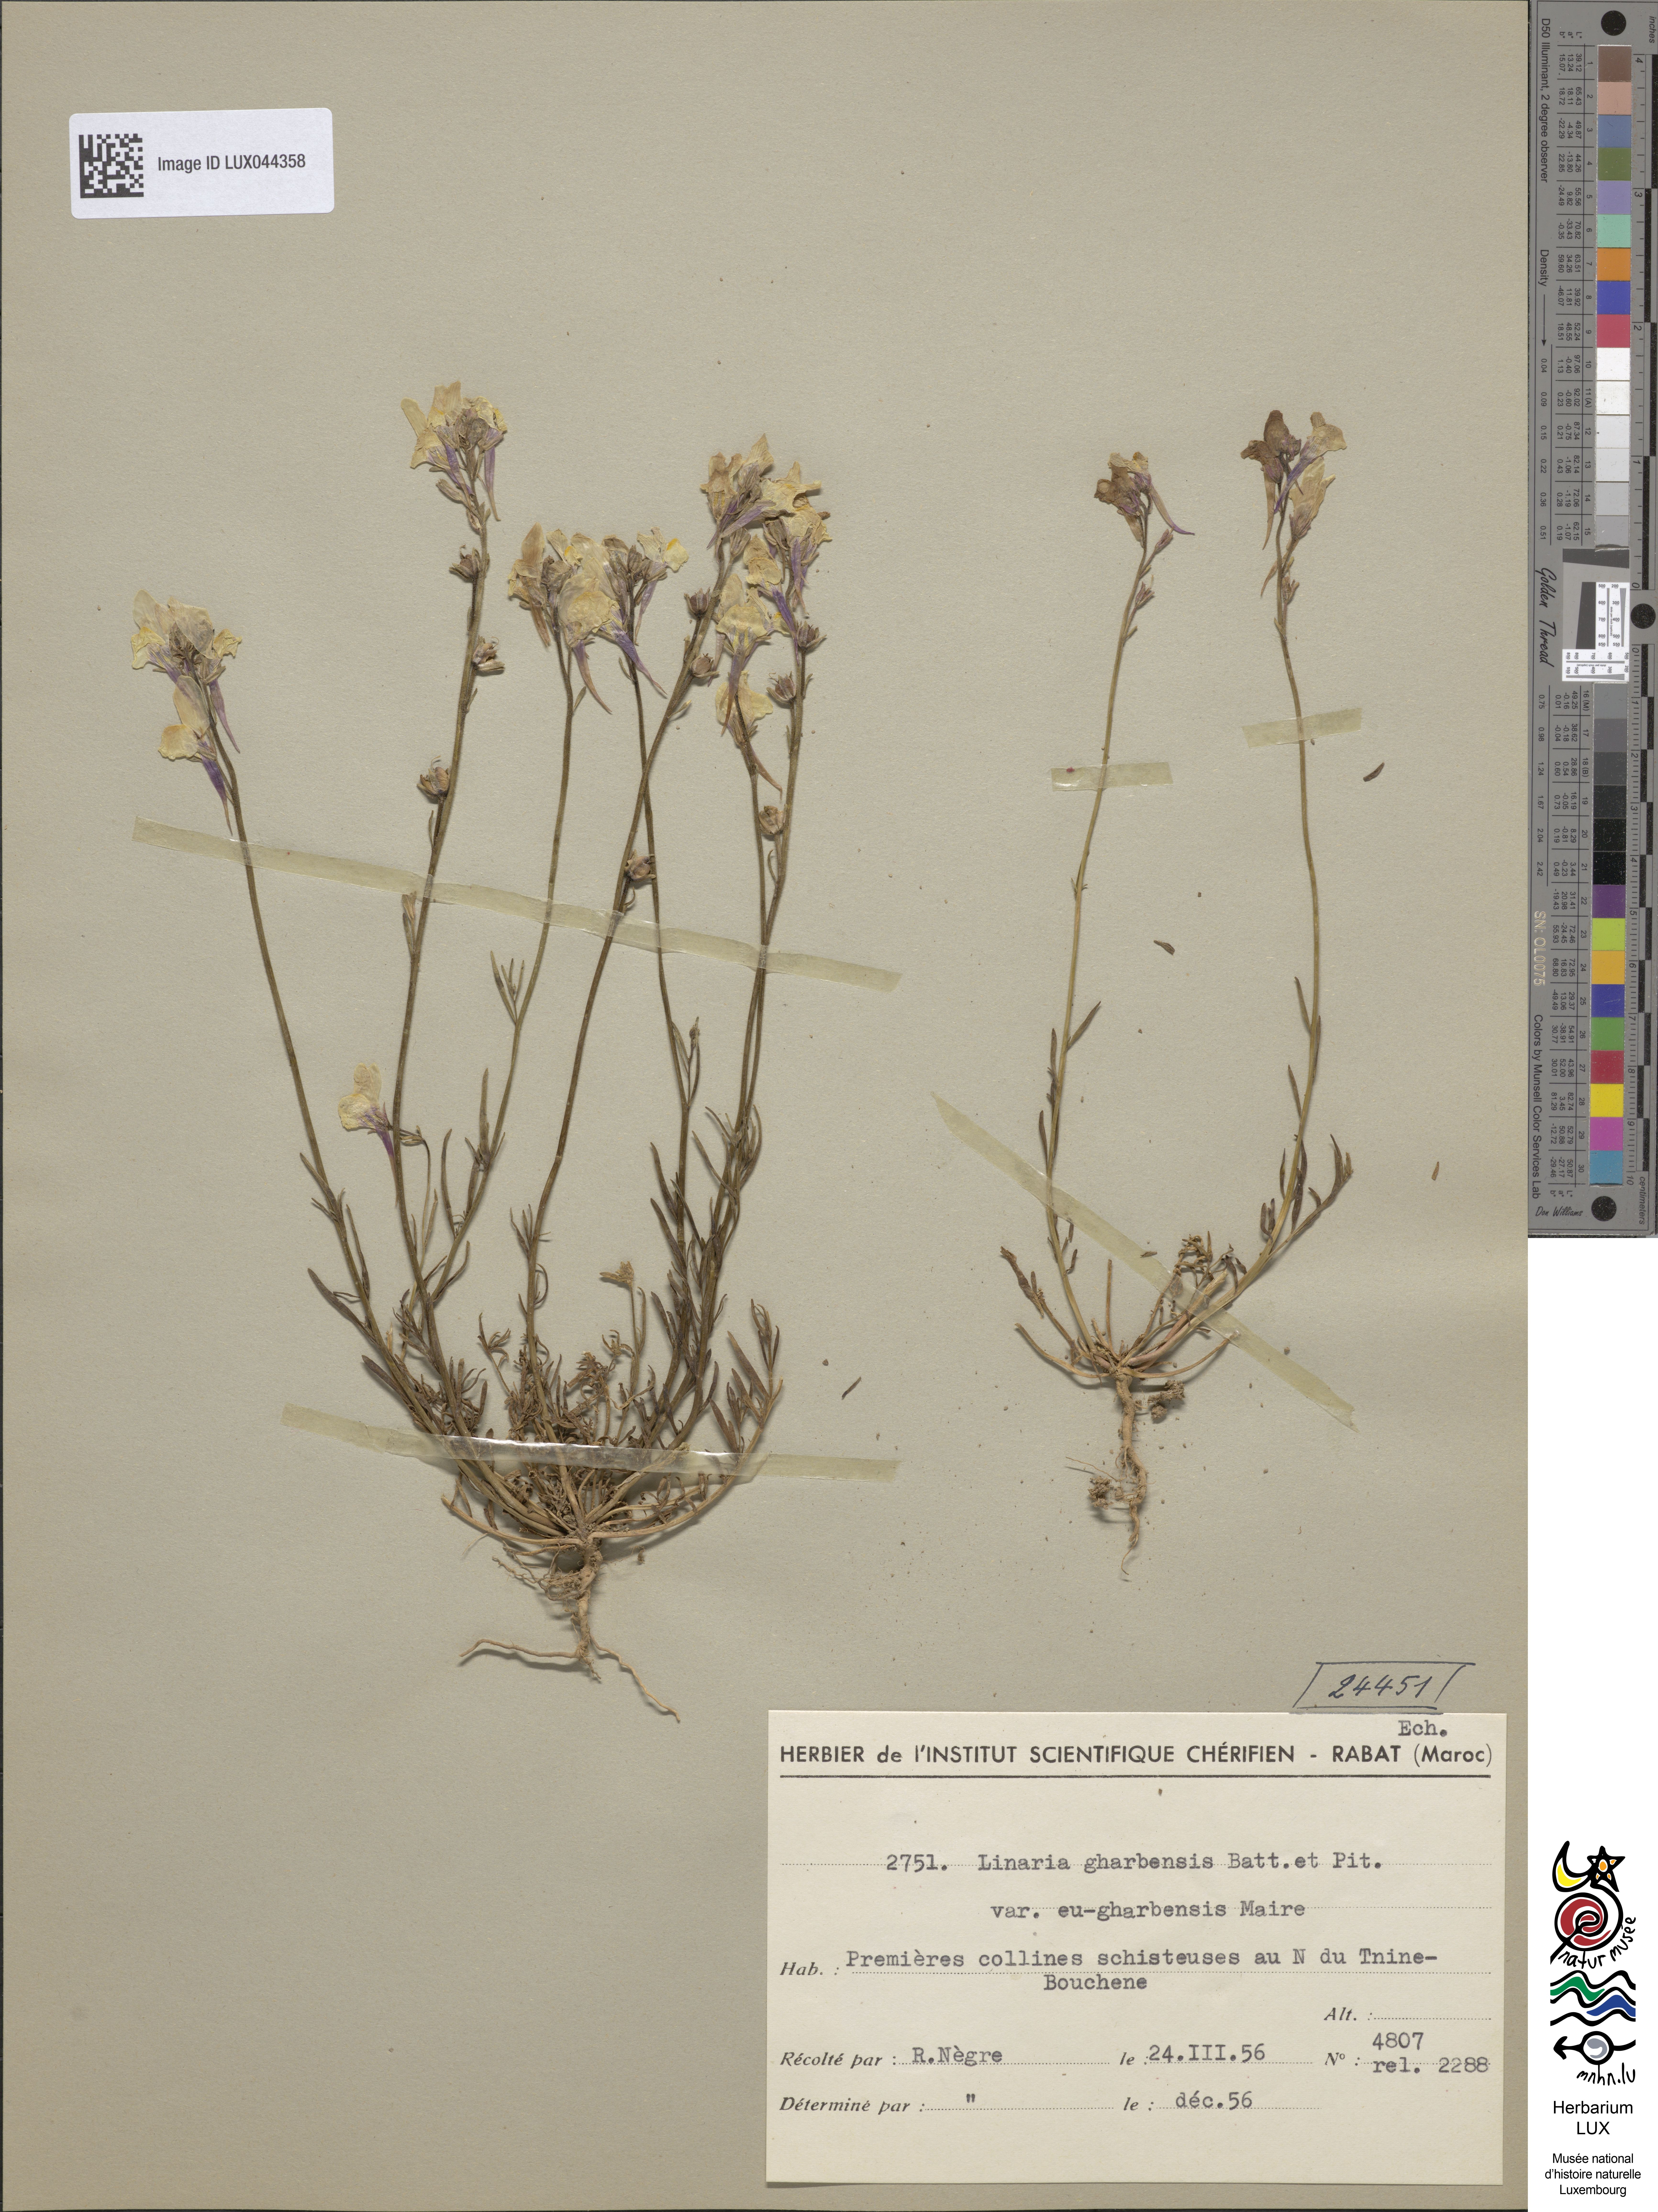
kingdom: Plantae
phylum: Tracheophyta
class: Magnoliopsida
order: Lamiales
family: Plantaginaceae
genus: Linaria
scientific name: Linaria gharbensis
